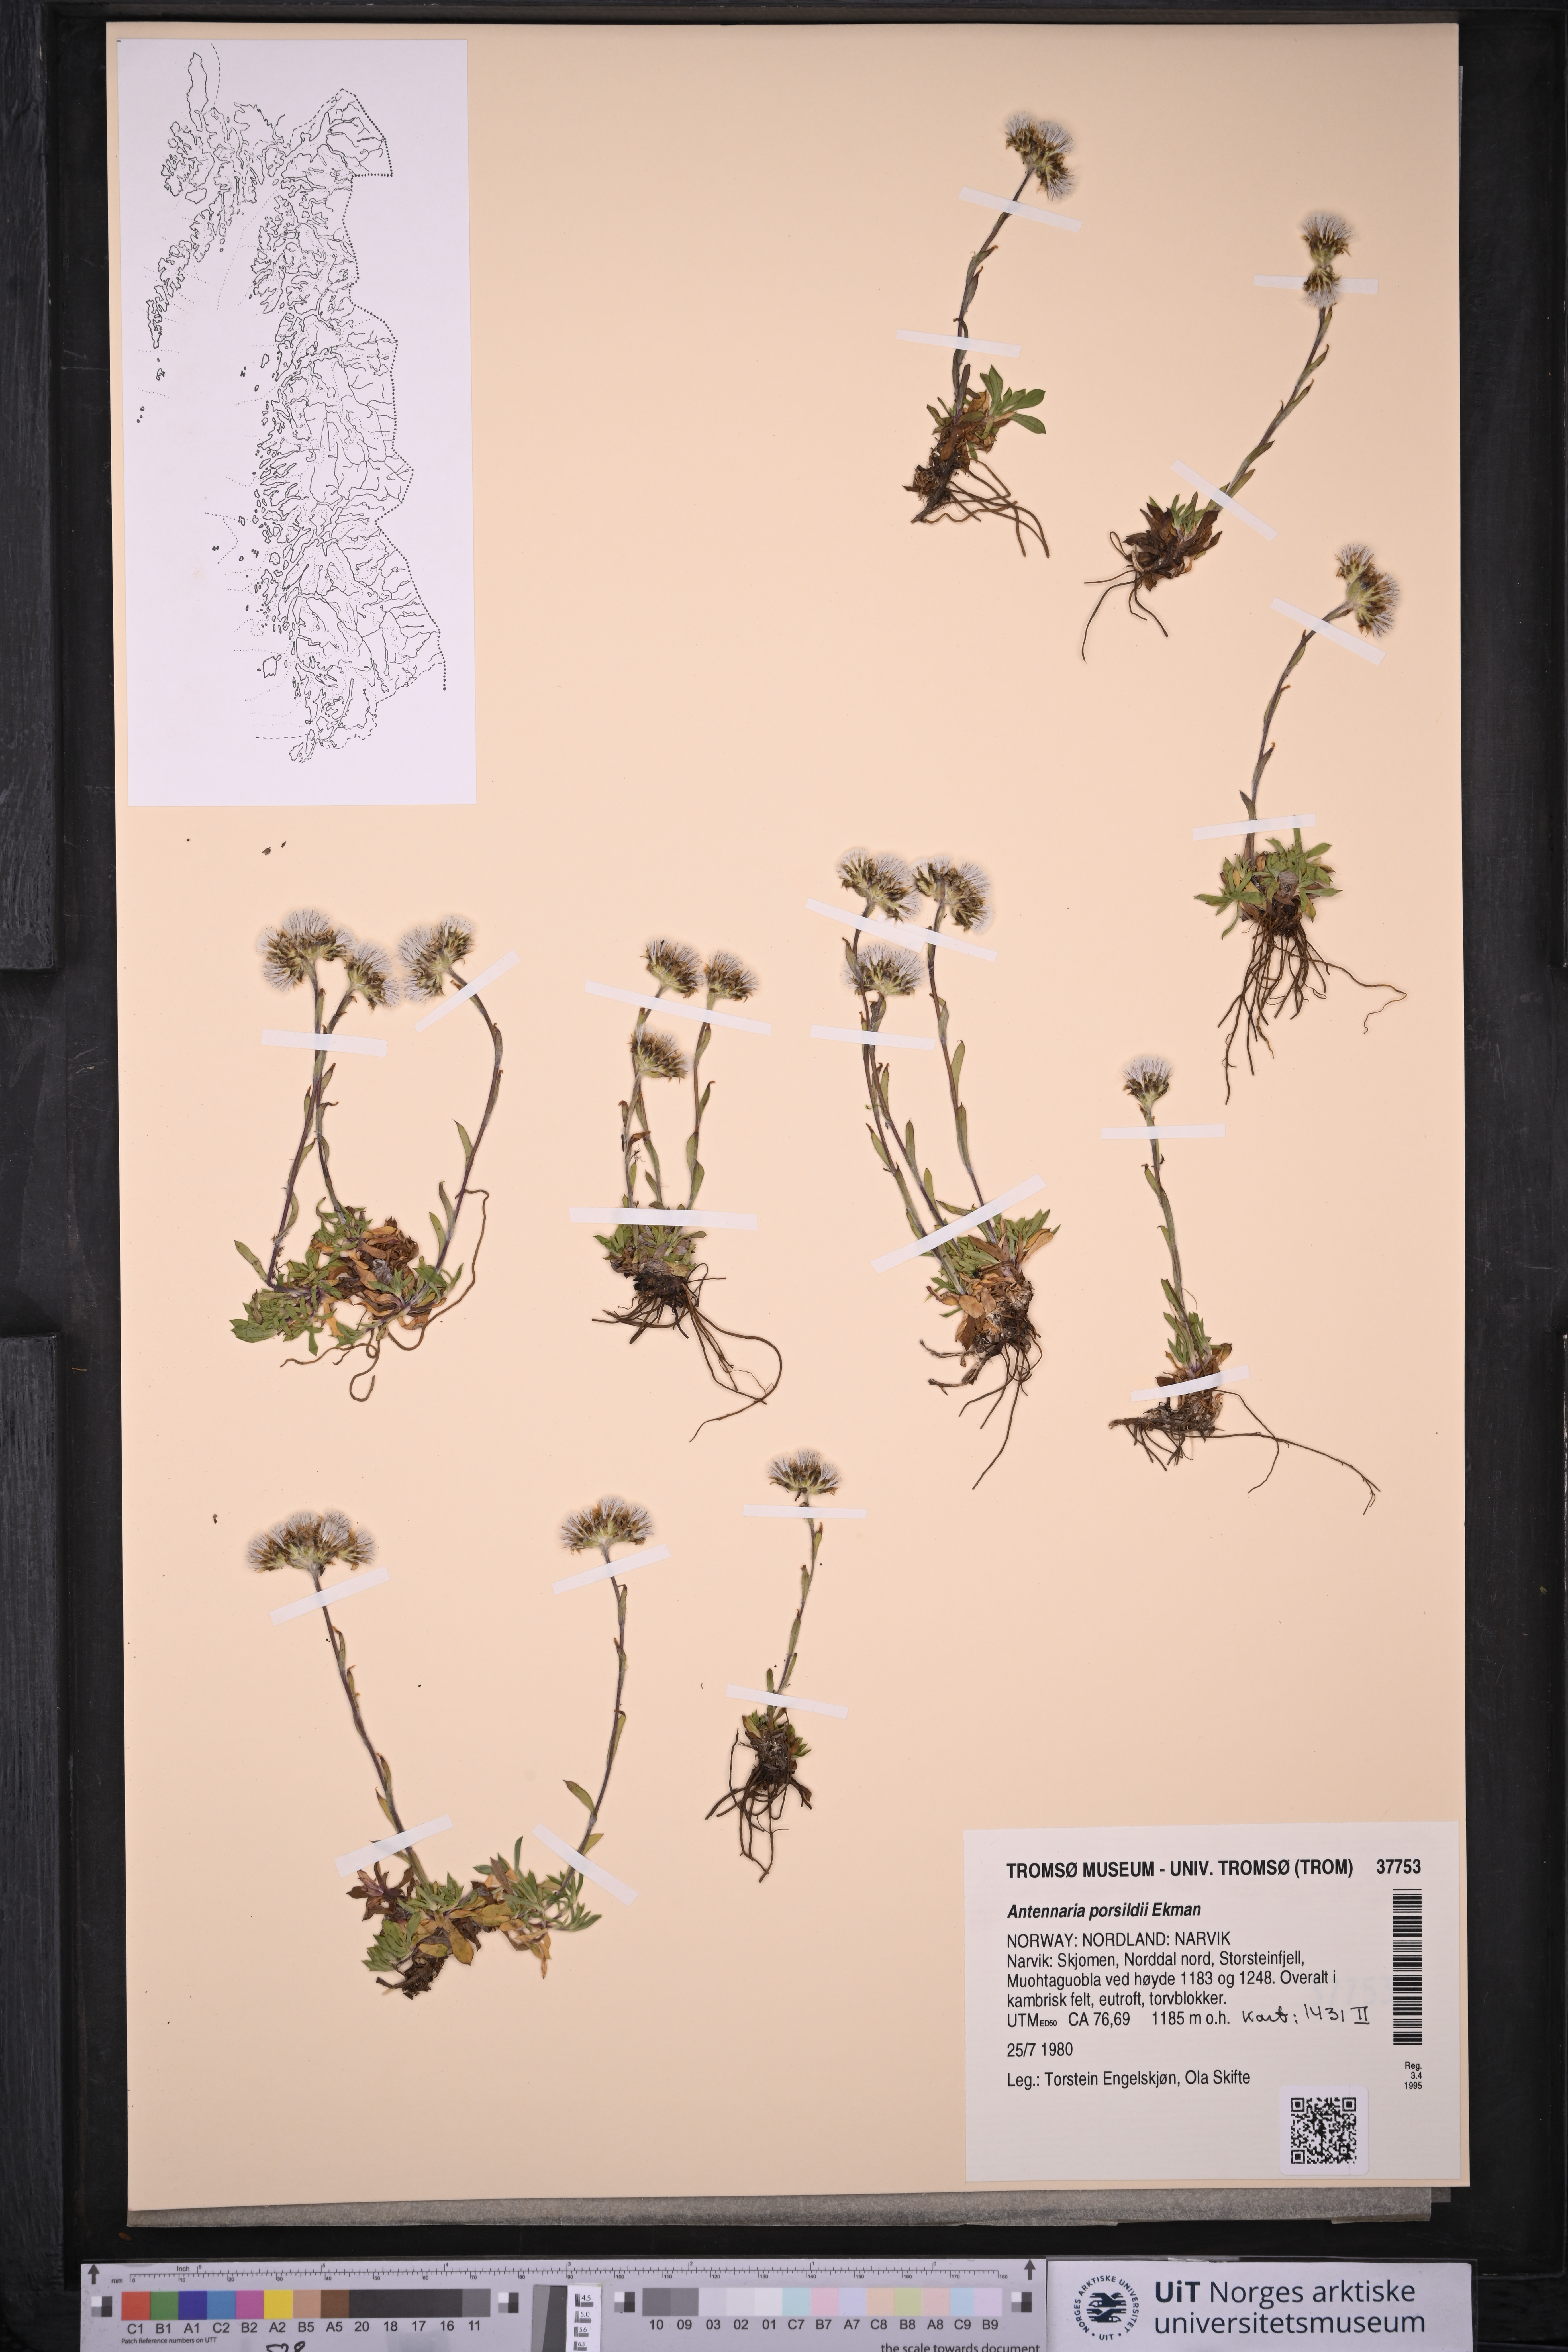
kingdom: Plantae
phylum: Tracheophyta
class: Magnoliopsida
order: Asterales
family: Asteraceae
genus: Antennaria
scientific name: Antennaria porsildii
